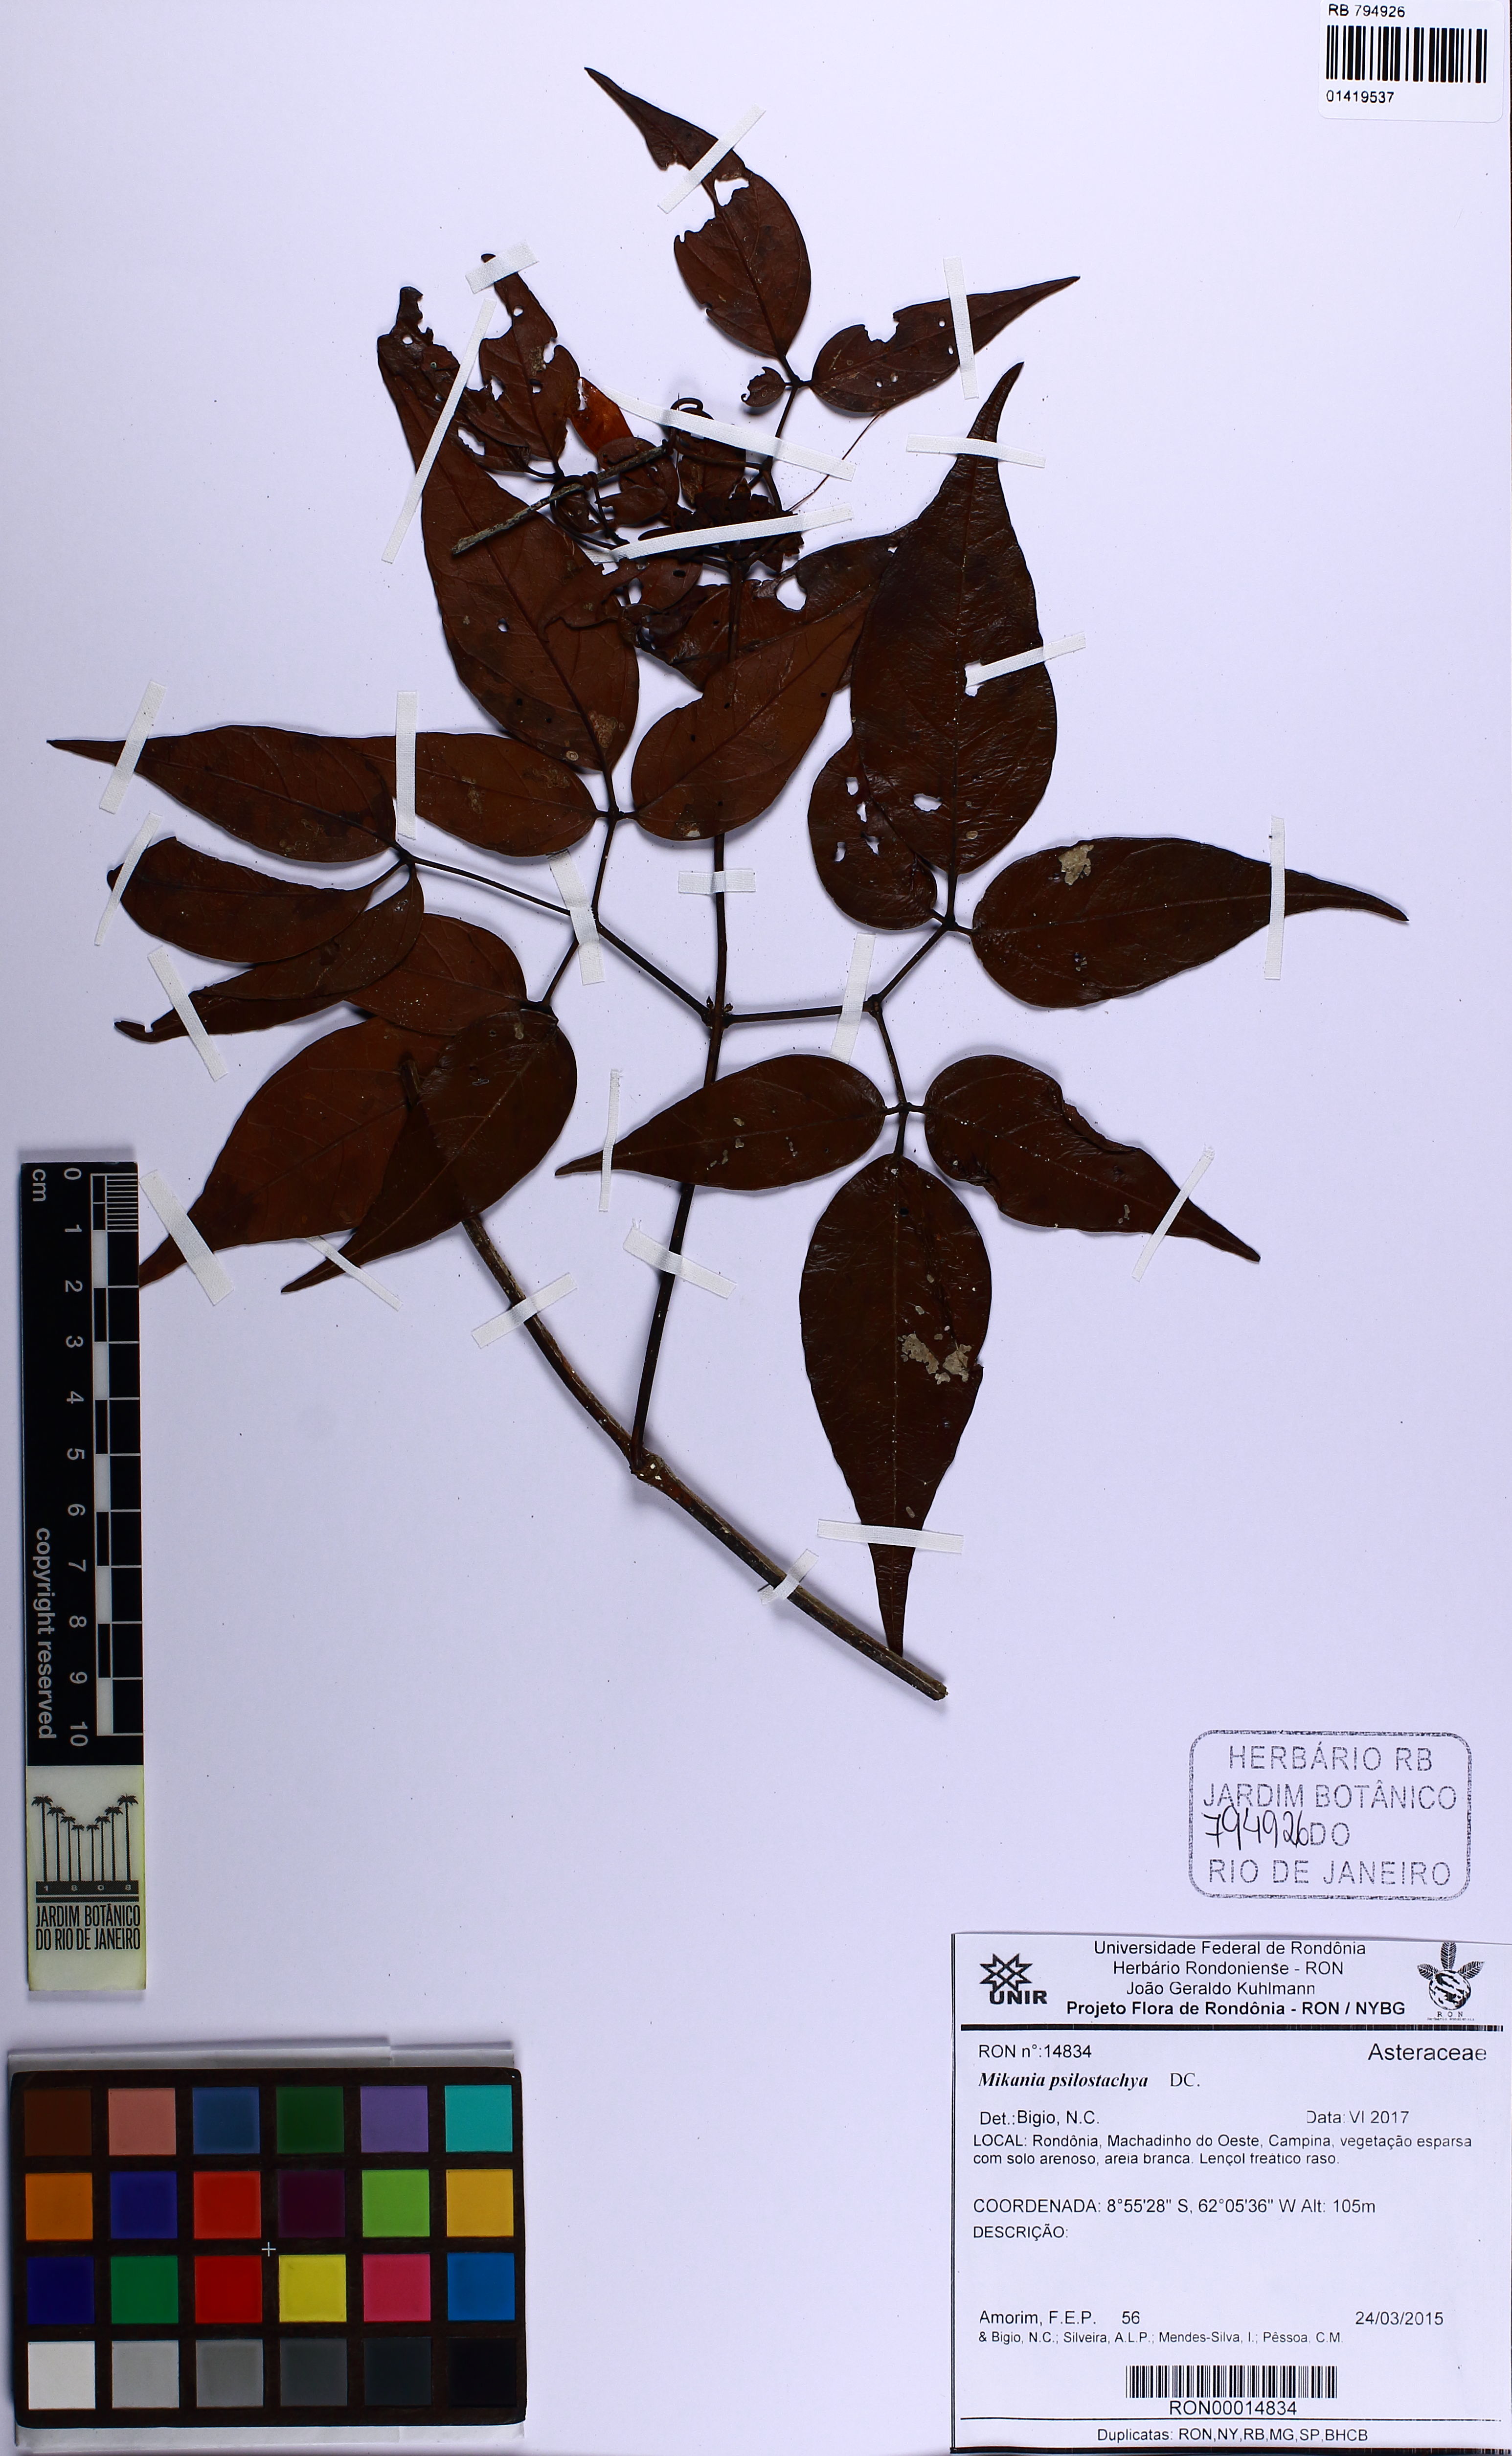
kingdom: Plantae
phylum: Tracheophyta
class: Magnoliopsida
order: Asterales
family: Asteraceae
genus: Mikania
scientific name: Mikania psilostachya
